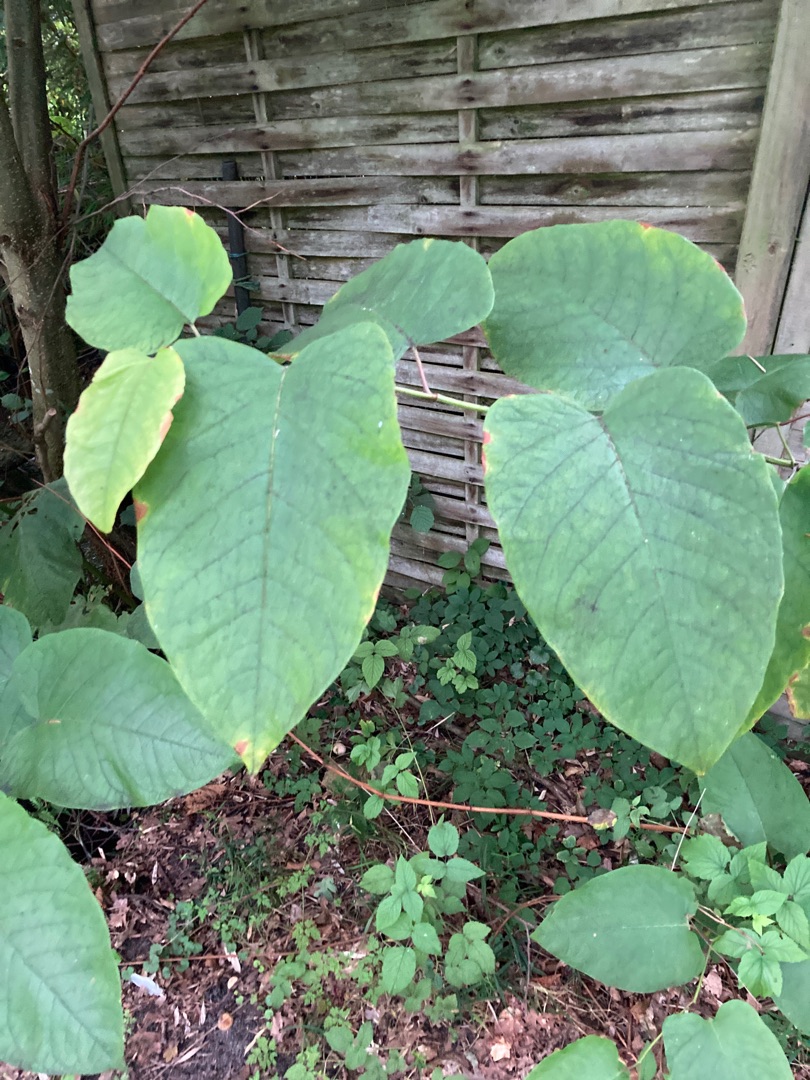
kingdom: Plantae
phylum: Tracheophyta
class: Magnoliopsida
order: Caryophyllales
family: Polygonaceae
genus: Reynoutria
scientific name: Reynoutria sachalinensis
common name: Kæmpe-pileurt
